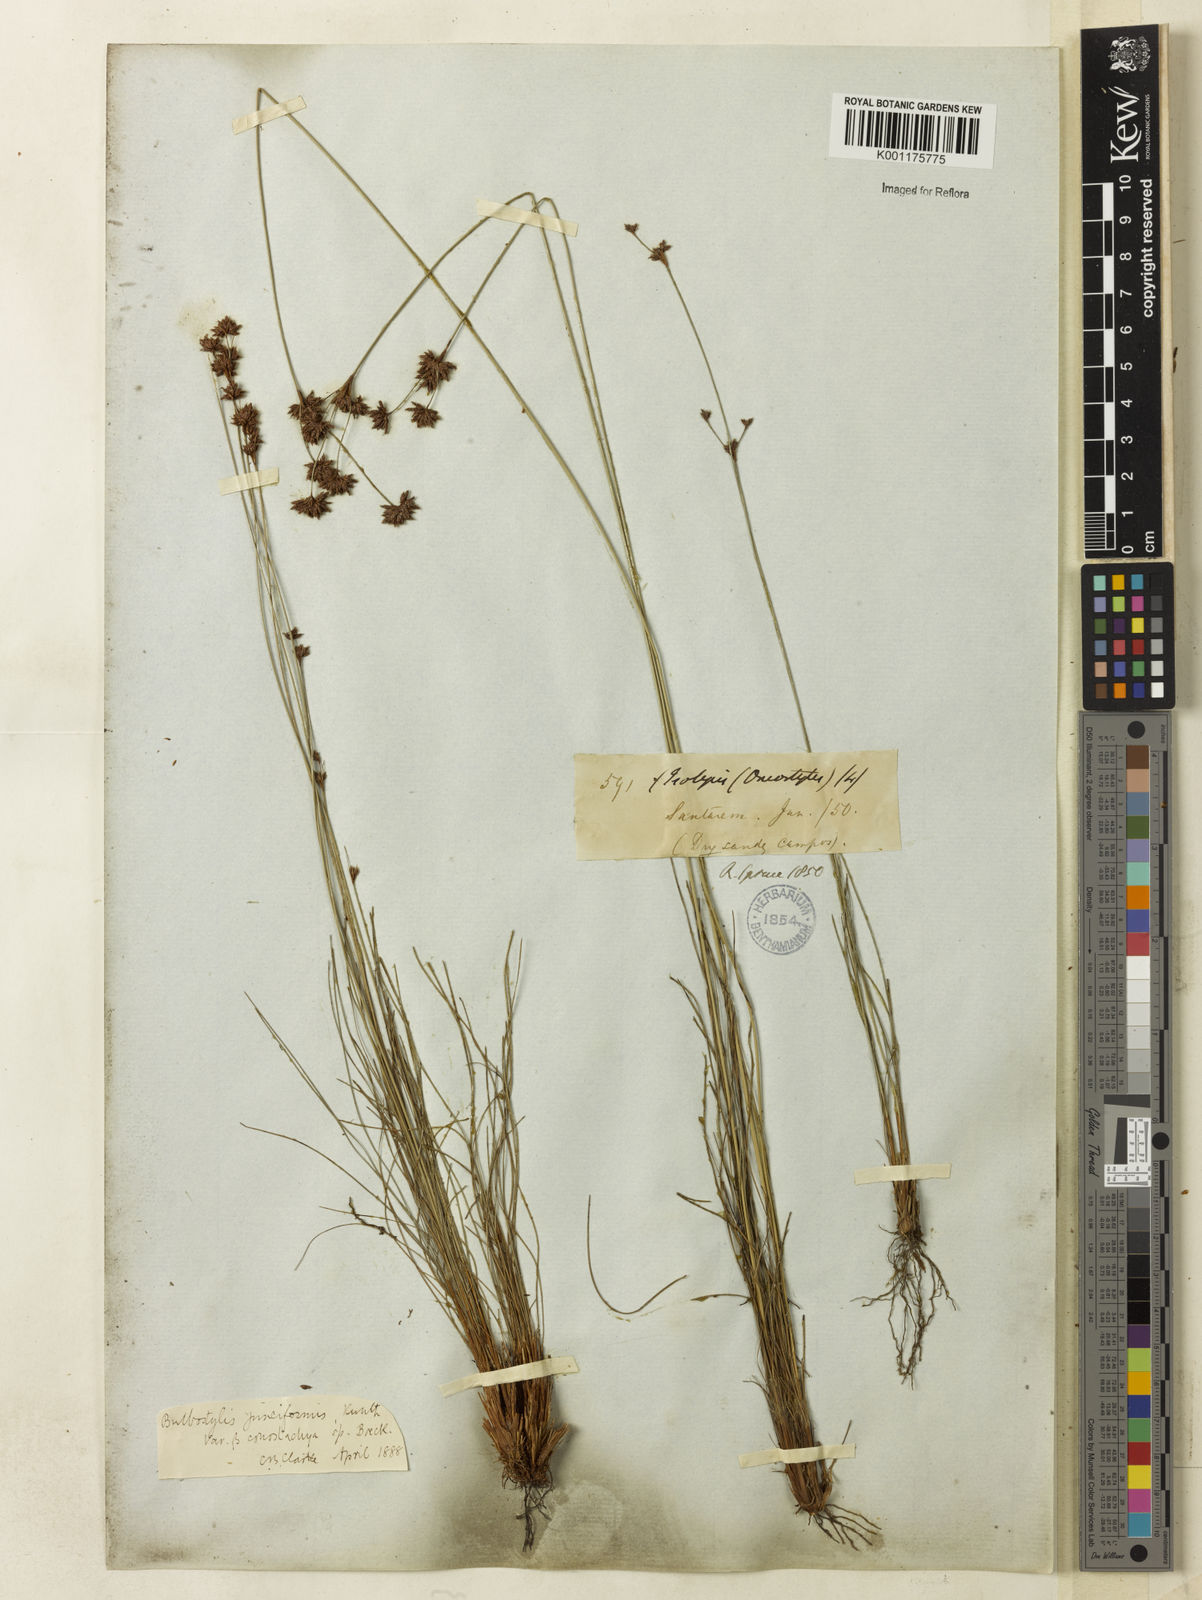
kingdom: Plantae
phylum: Tracheophyta
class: Liliopsida
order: Poales
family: Cyperaceae
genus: Bulbostylis
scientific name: Bulbostylis junciformis
